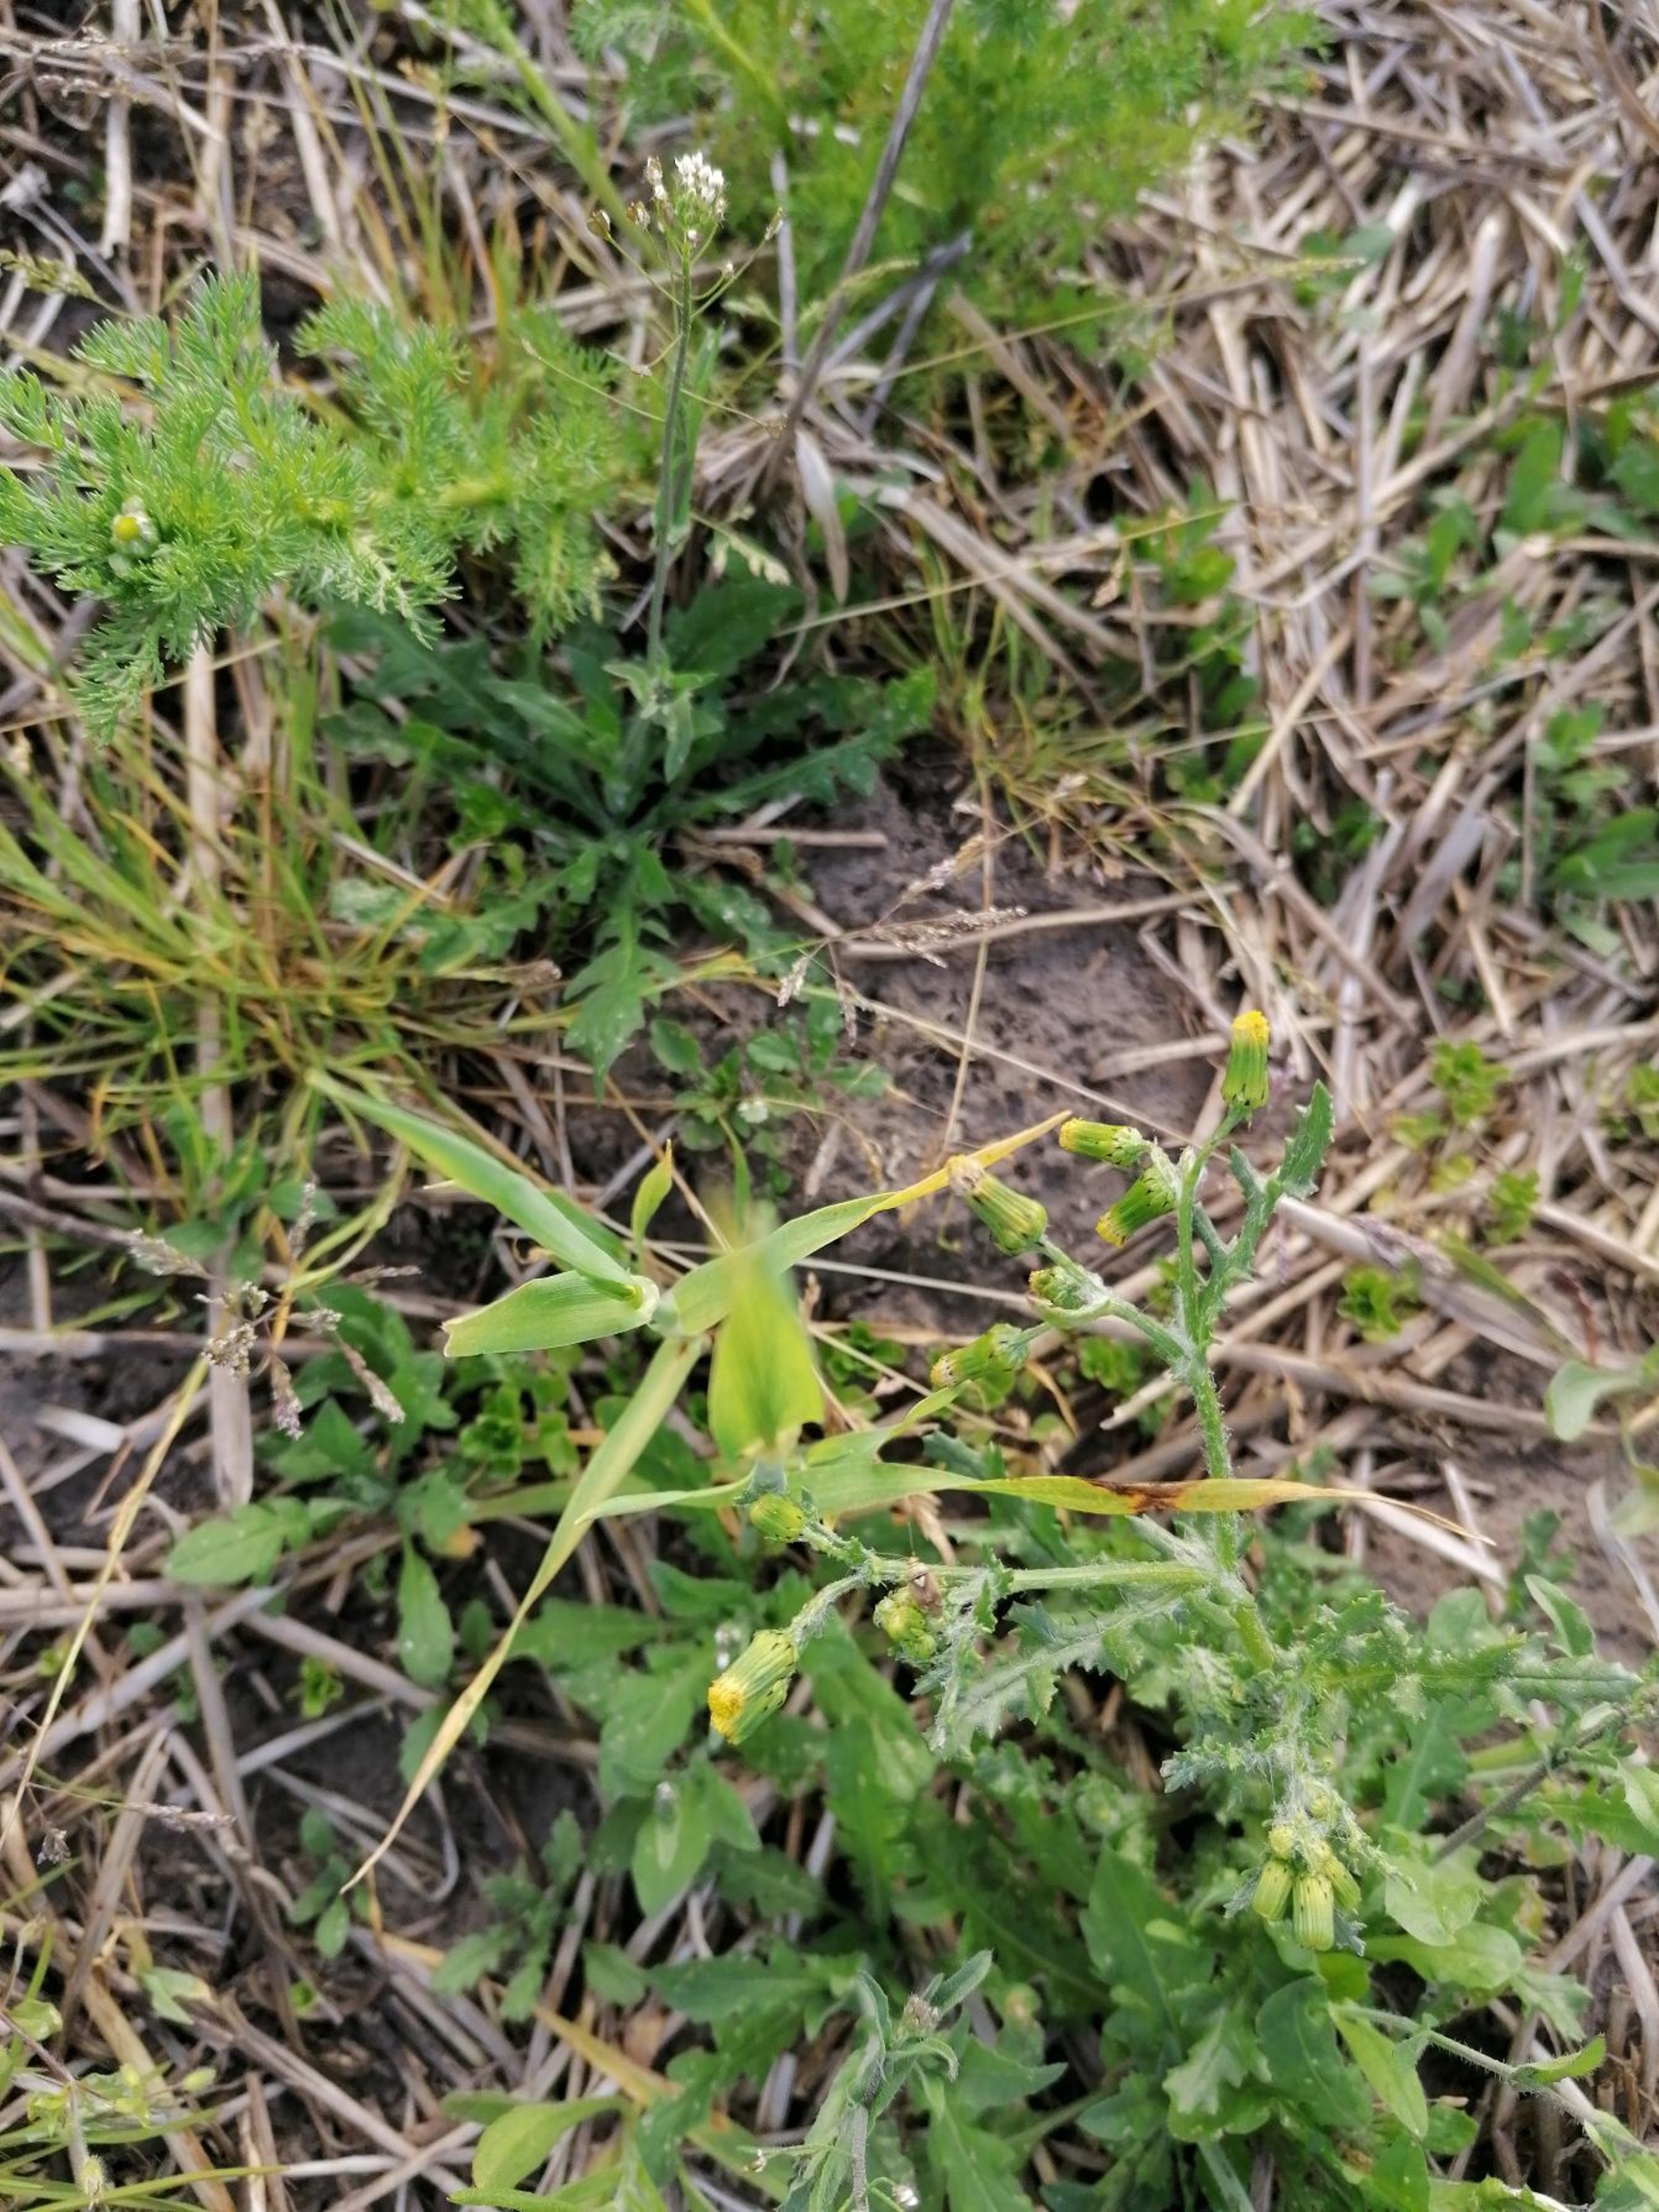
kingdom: Plantae
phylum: Tracheophyta
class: Magnoliopsida
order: Asterales
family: Asteraceae
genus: Senecio
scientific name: Senecio vulgaris
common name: Almindelig brandbæger
